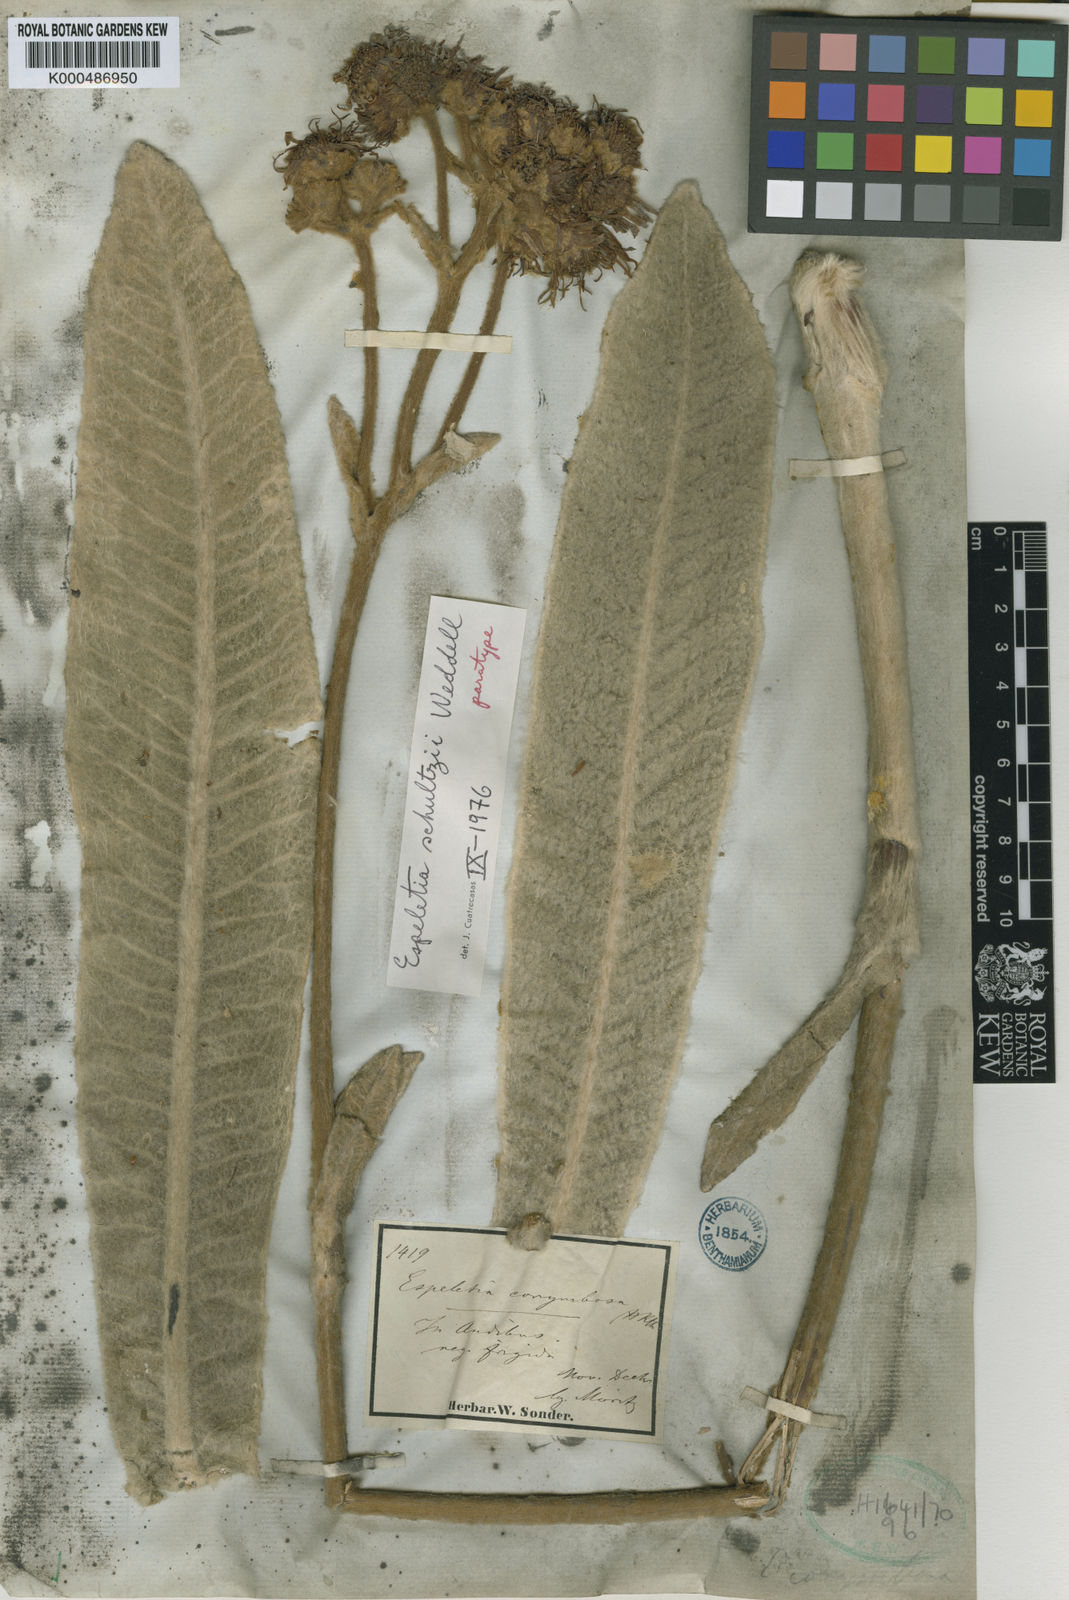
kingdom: Plantae
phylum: Tracheophyta
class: Magnoliopsida
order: Asterales
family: Asteraceae
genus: Espeletia
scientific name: Espeletia schultzii
